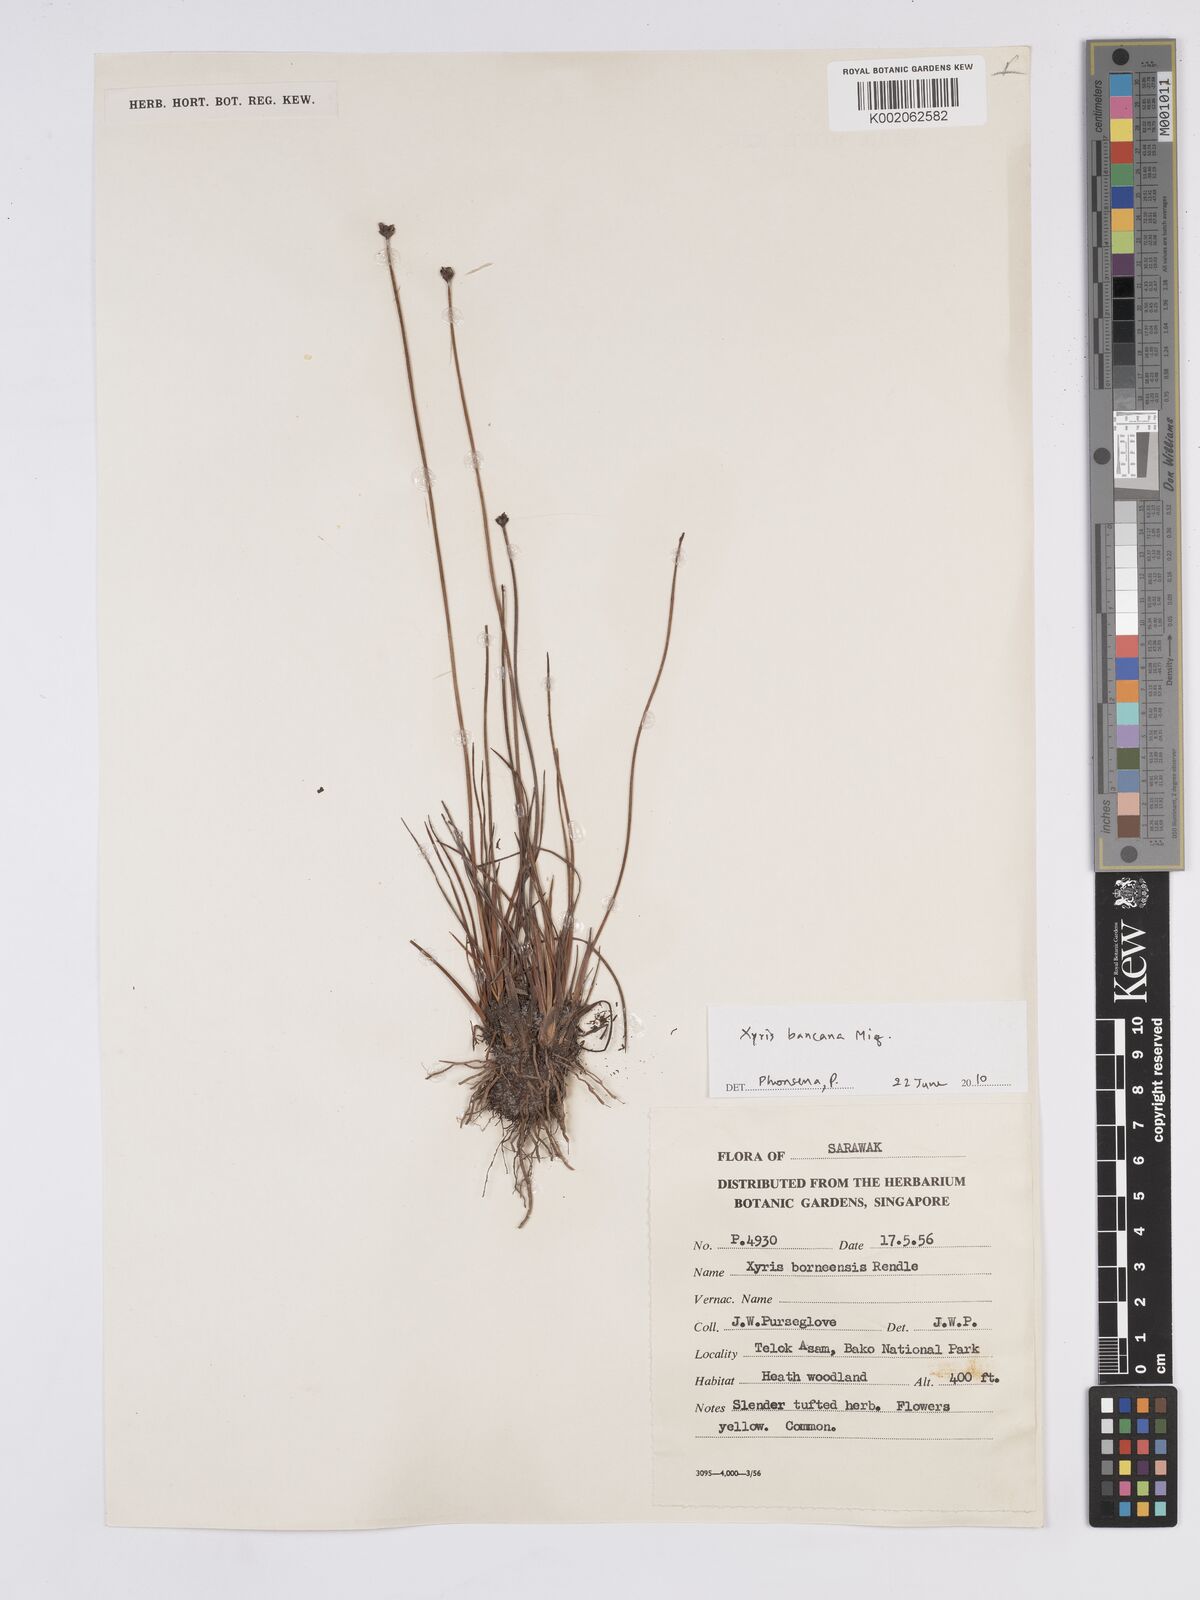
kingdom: Plantae
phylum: Tracheophyta
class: Liliopsida
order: Poales
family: Xyridaceae
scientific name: Xyridaceae
